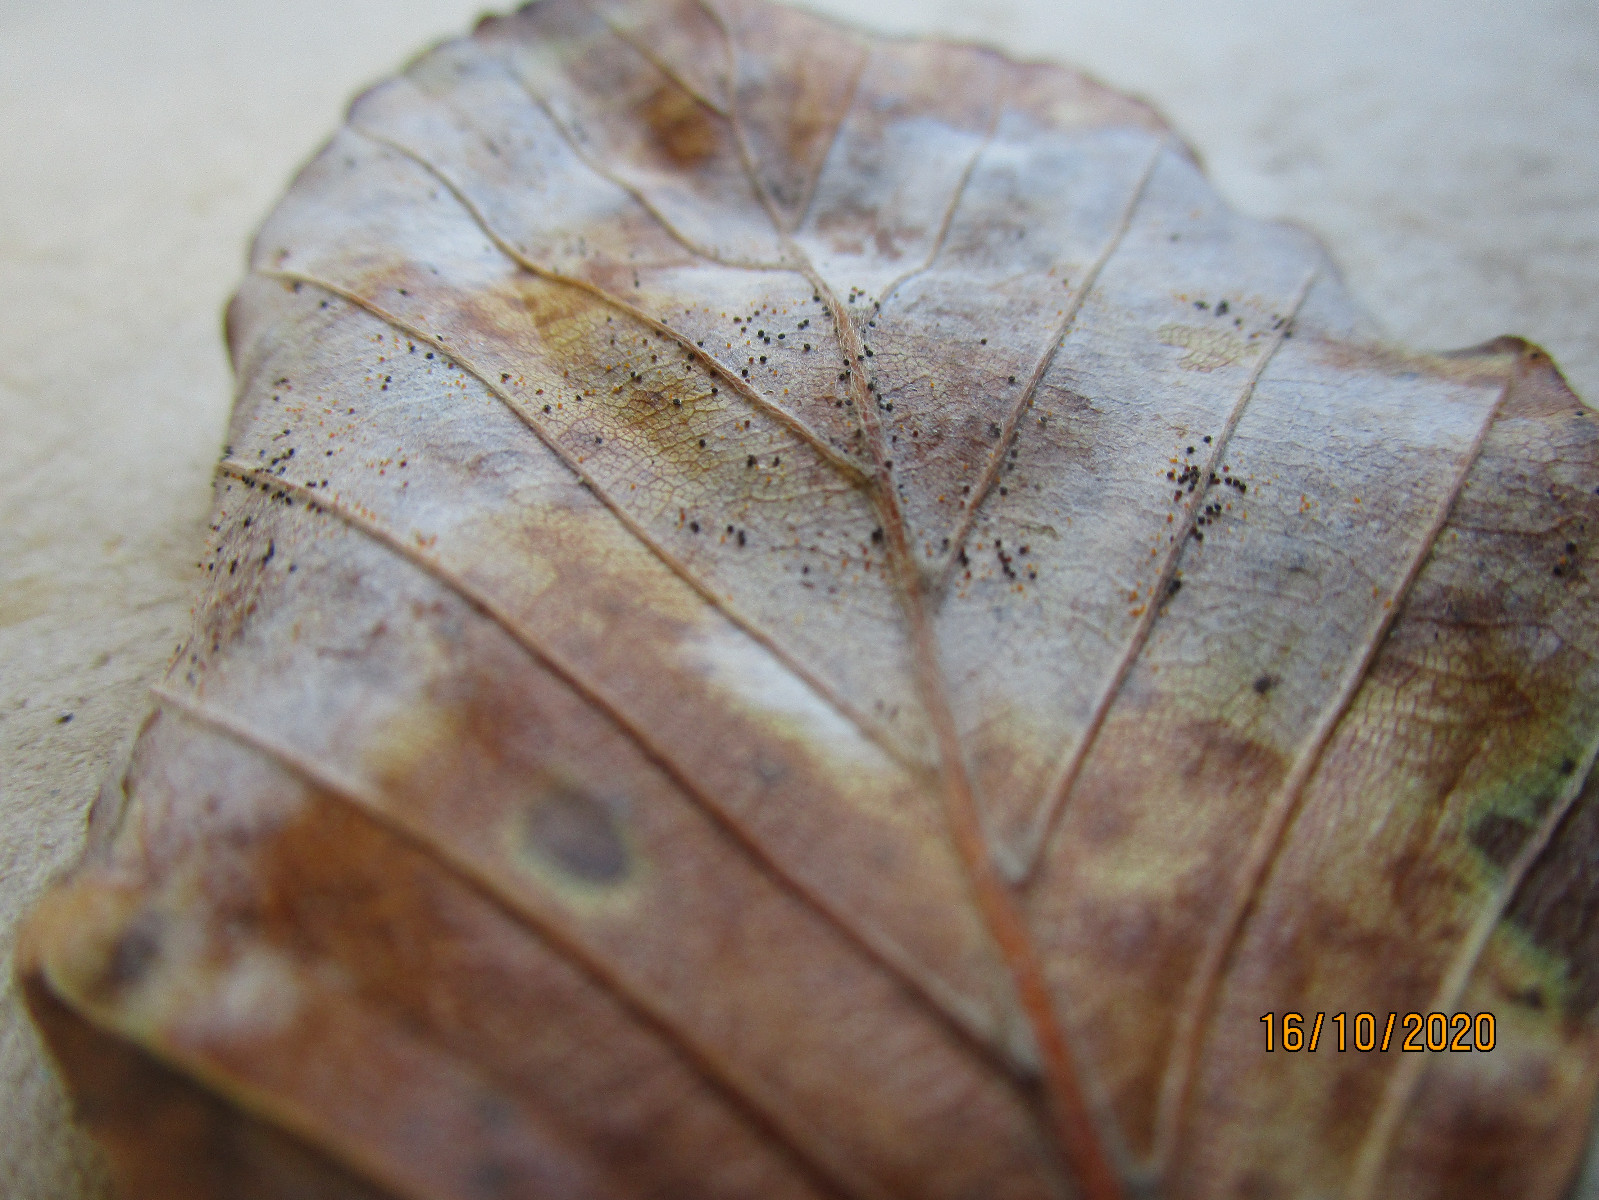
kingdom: Fungi
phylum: Ascomycota
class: Leotiomycetes
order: Helotiales
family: Erysiphaceae
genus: Phyllactinia
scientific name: Phyllactinia orbicularis
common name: bøge-meldug
